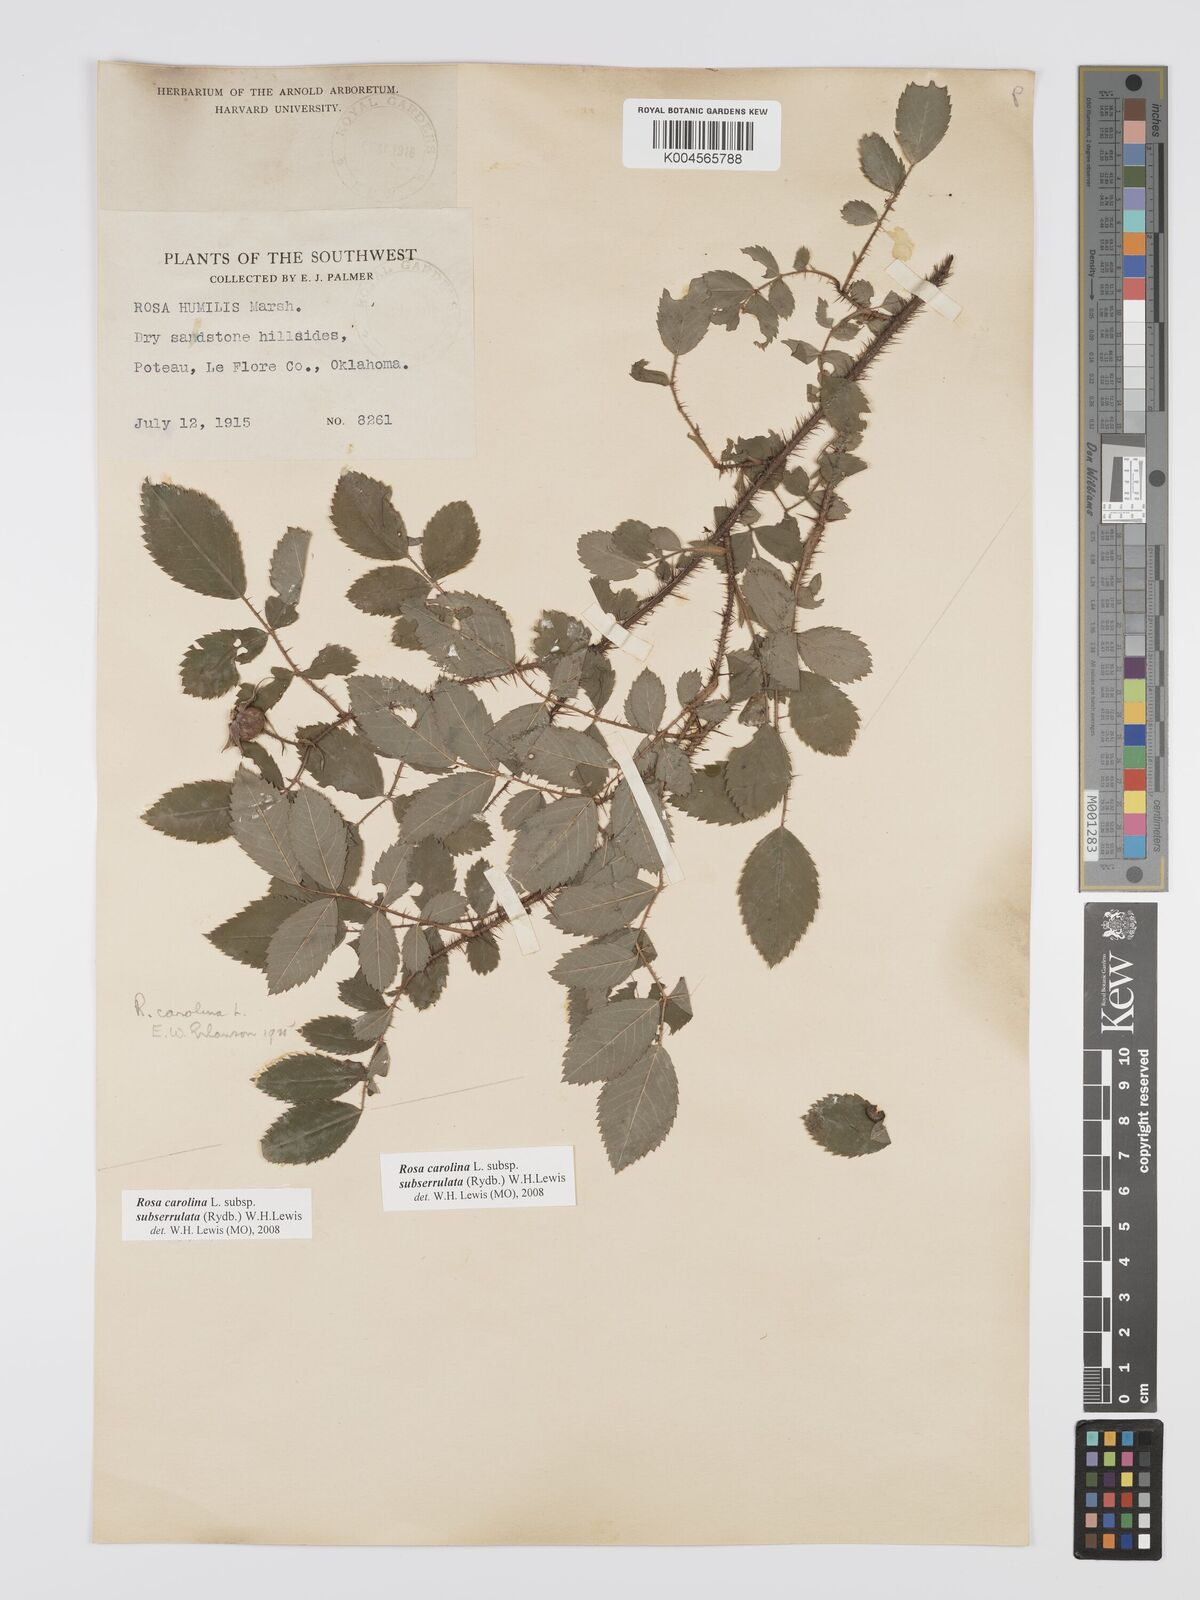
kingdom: Plantae
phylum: Tracheophyta
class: Magnoliopsida
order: Rosales
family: Rosaceae
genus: Rosa
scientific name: Rosa carolina
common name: Pasture rose
